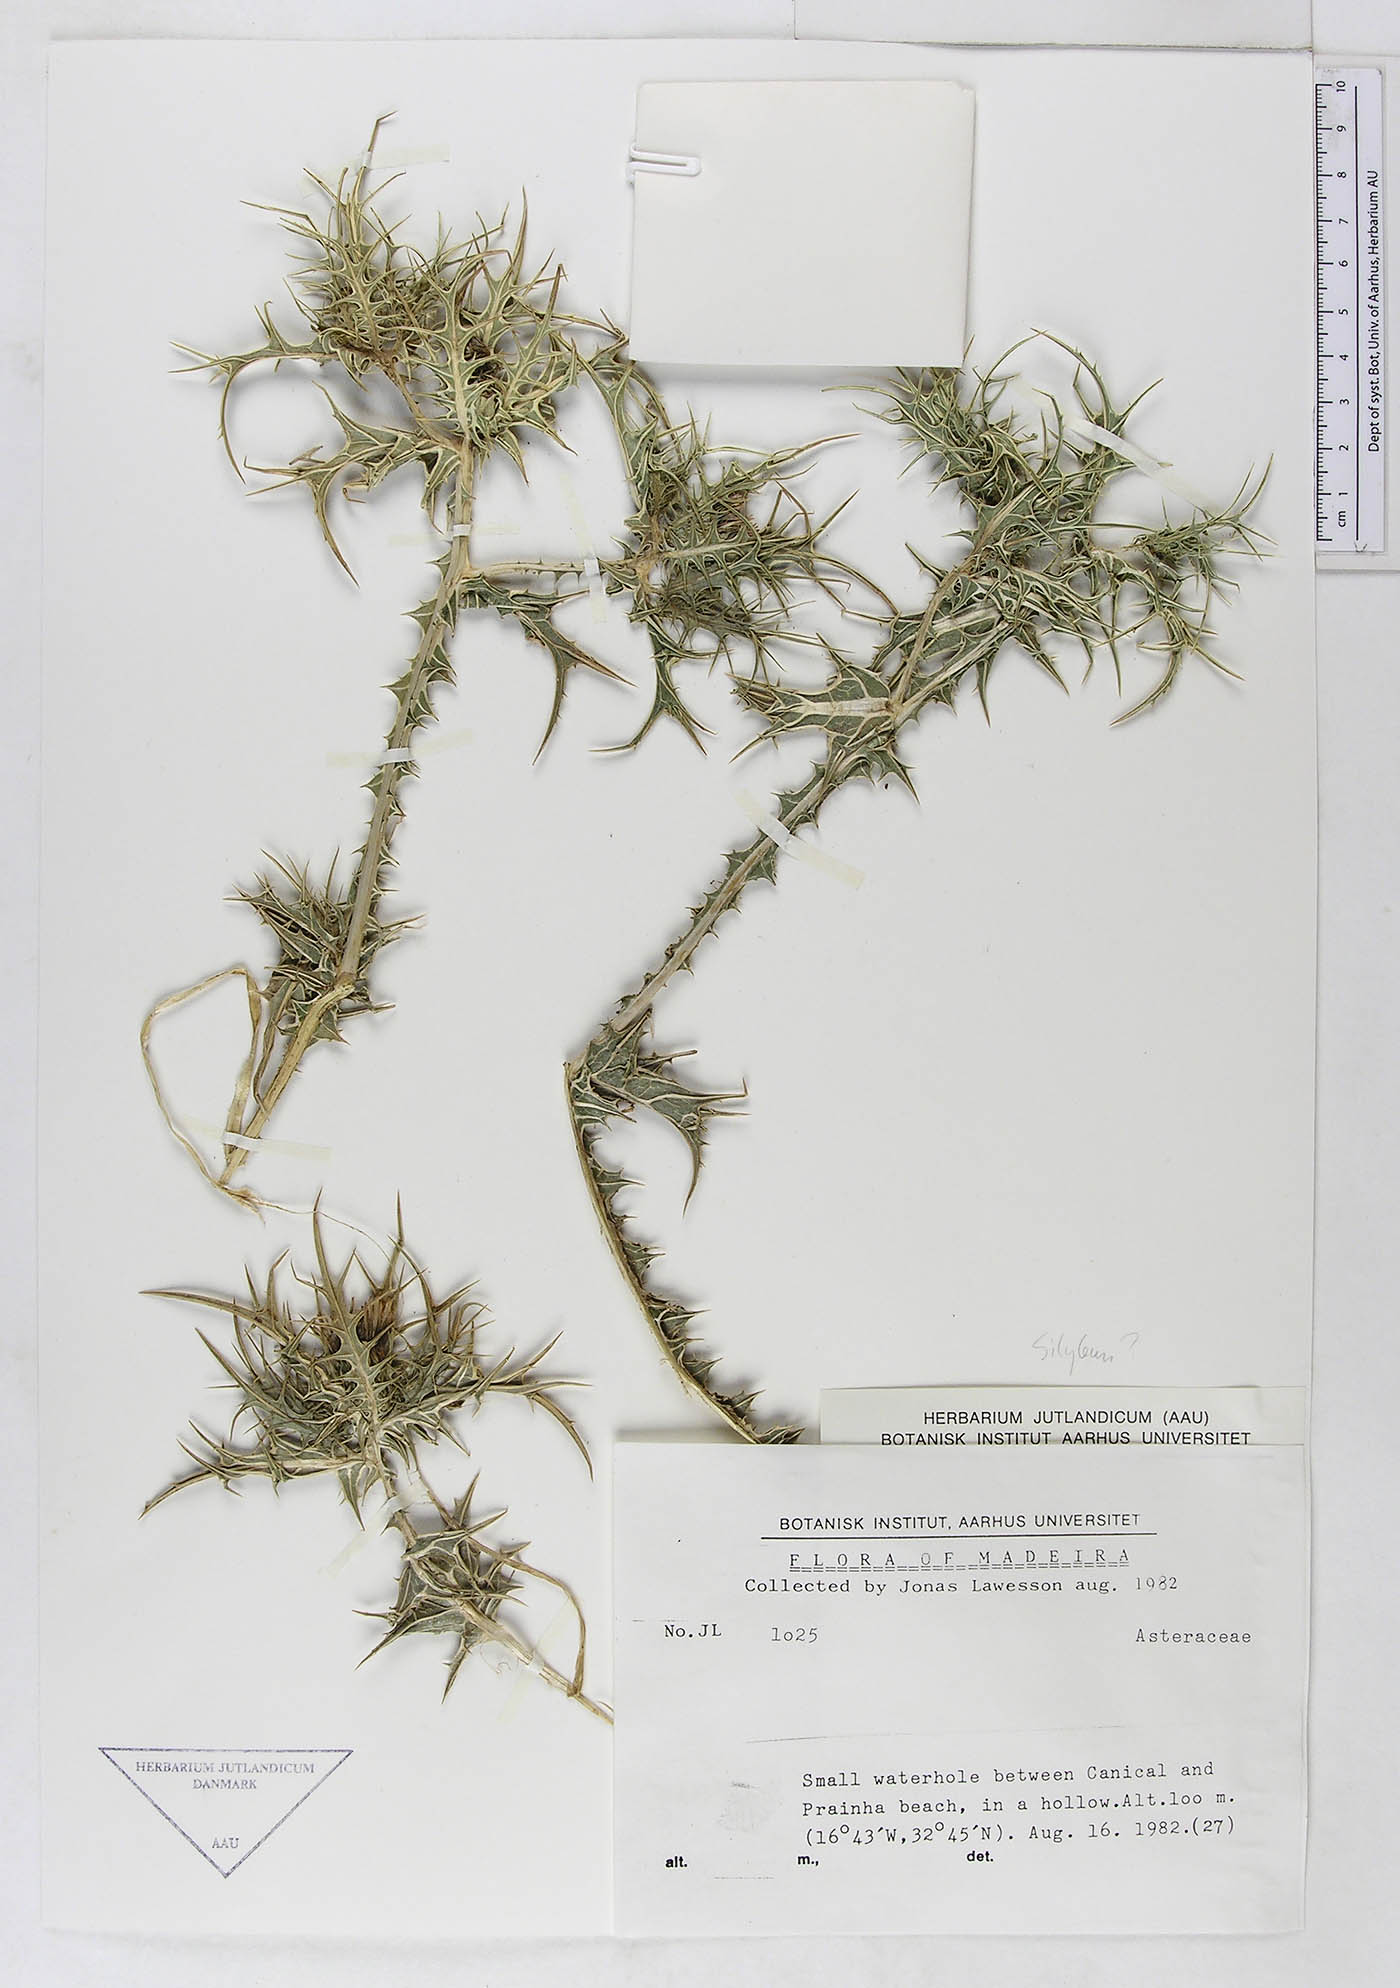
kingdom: Plantae
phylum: Tracheophyta
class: Magnoliopsida
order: Asterales
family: Asteraceae
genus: Scolymus
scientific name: Scolymus maculatus
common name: Spotted thistle
